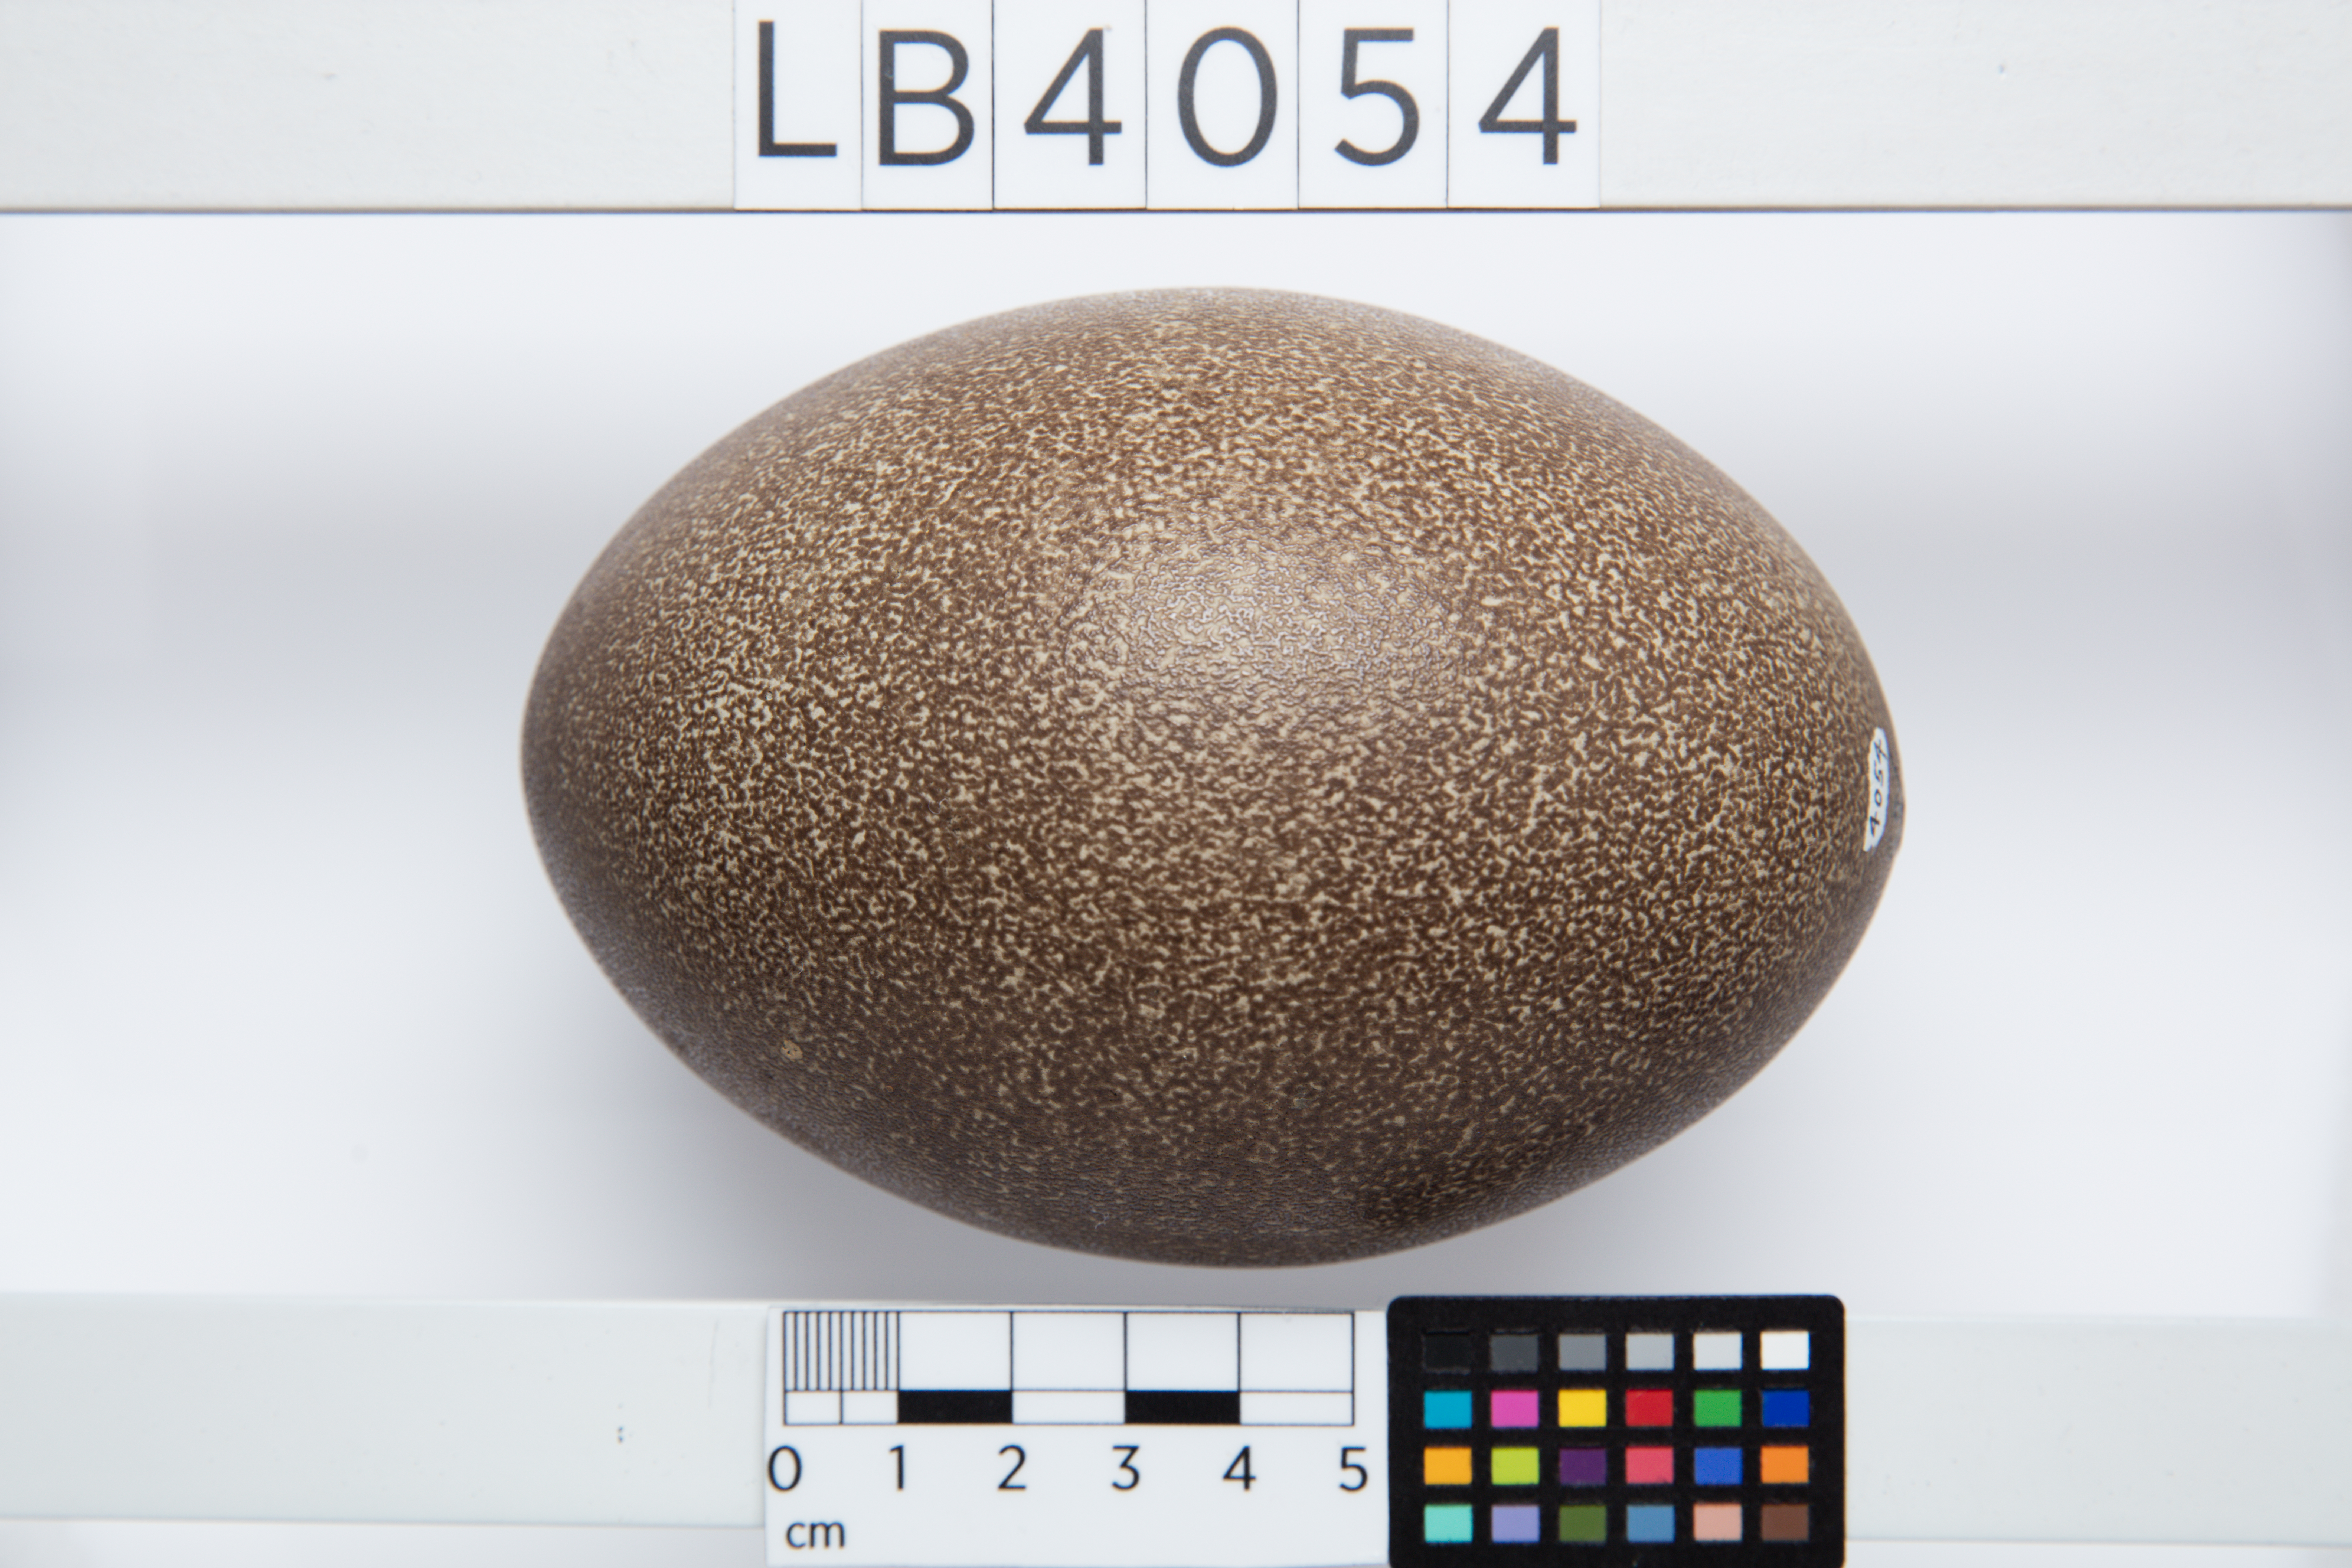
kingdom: Animalia
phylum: Chordata
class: Aves
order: Casuariiformes
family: Dromaiidae
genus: Dromaius
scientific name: Dromaius novaehollandiae
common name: Emu
